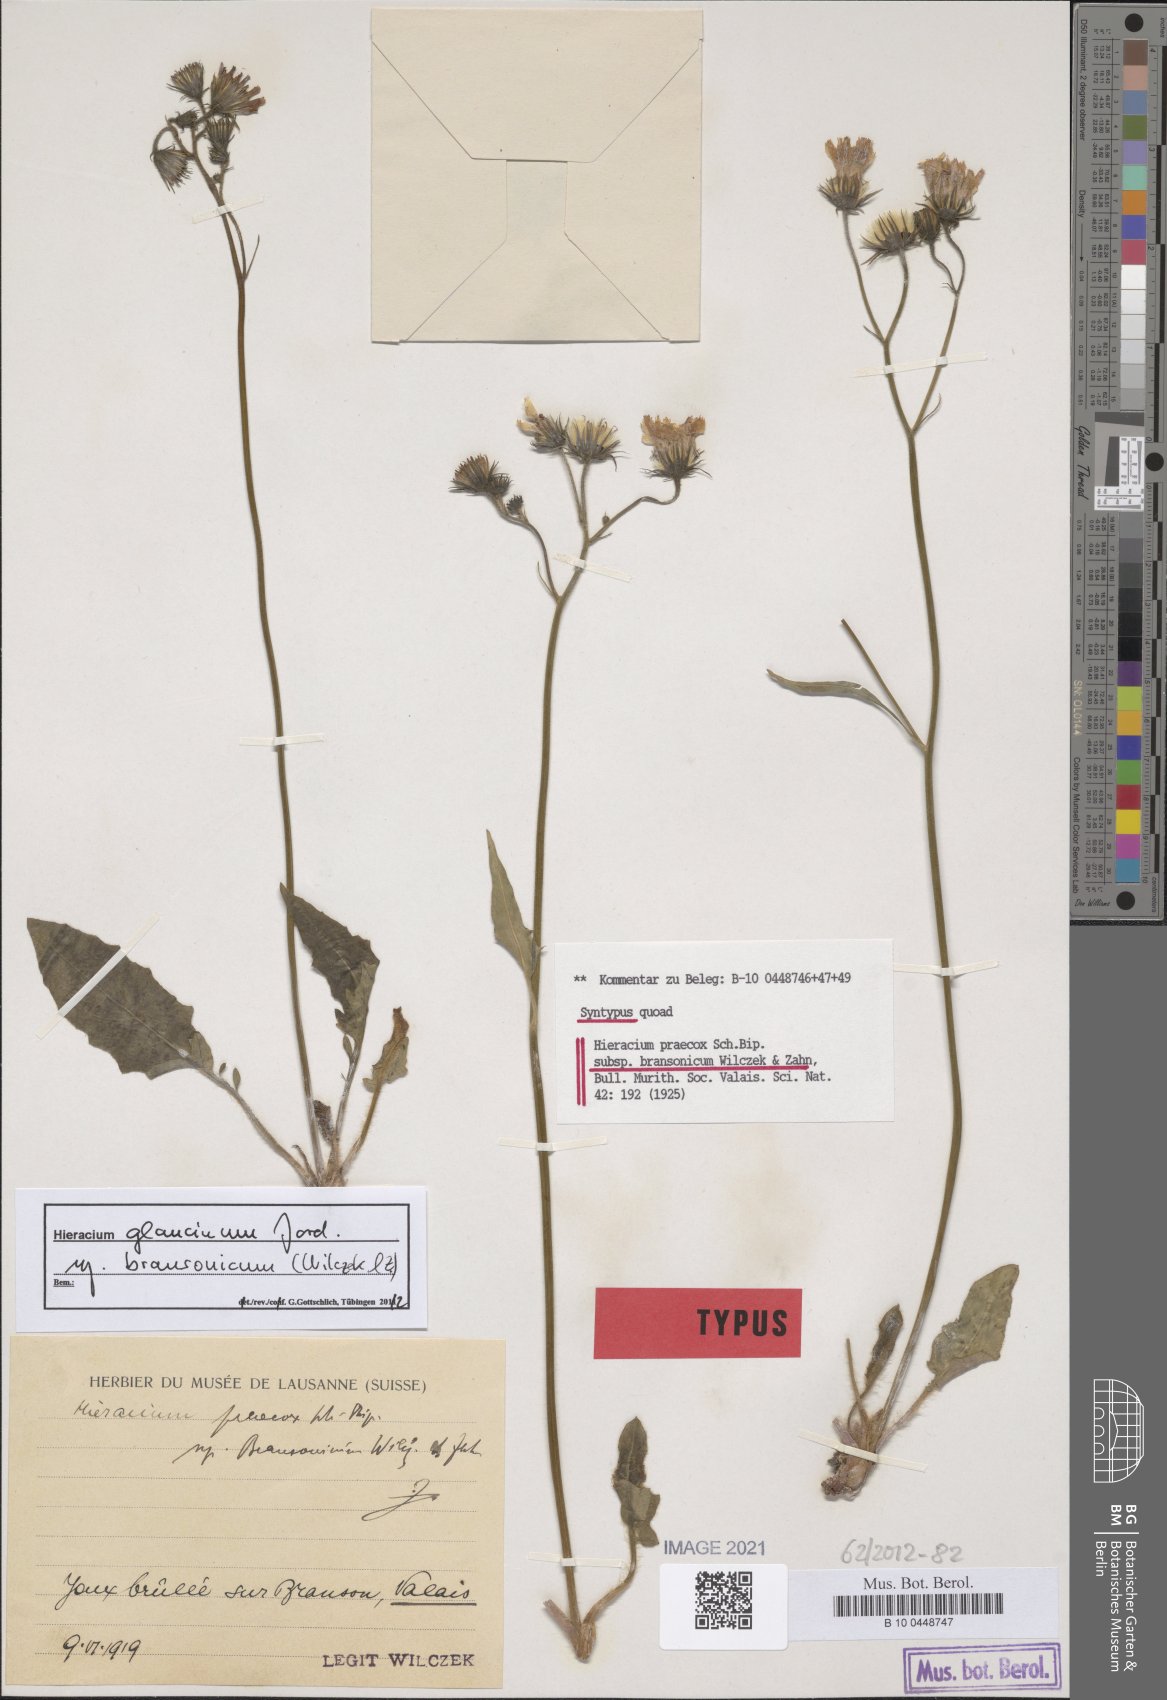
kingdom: Plantae
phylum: Tracheophyta
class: Magnoliopsida
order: Asterales
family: Asteraceae
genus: Hieracium
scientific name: Hieracium praecox
